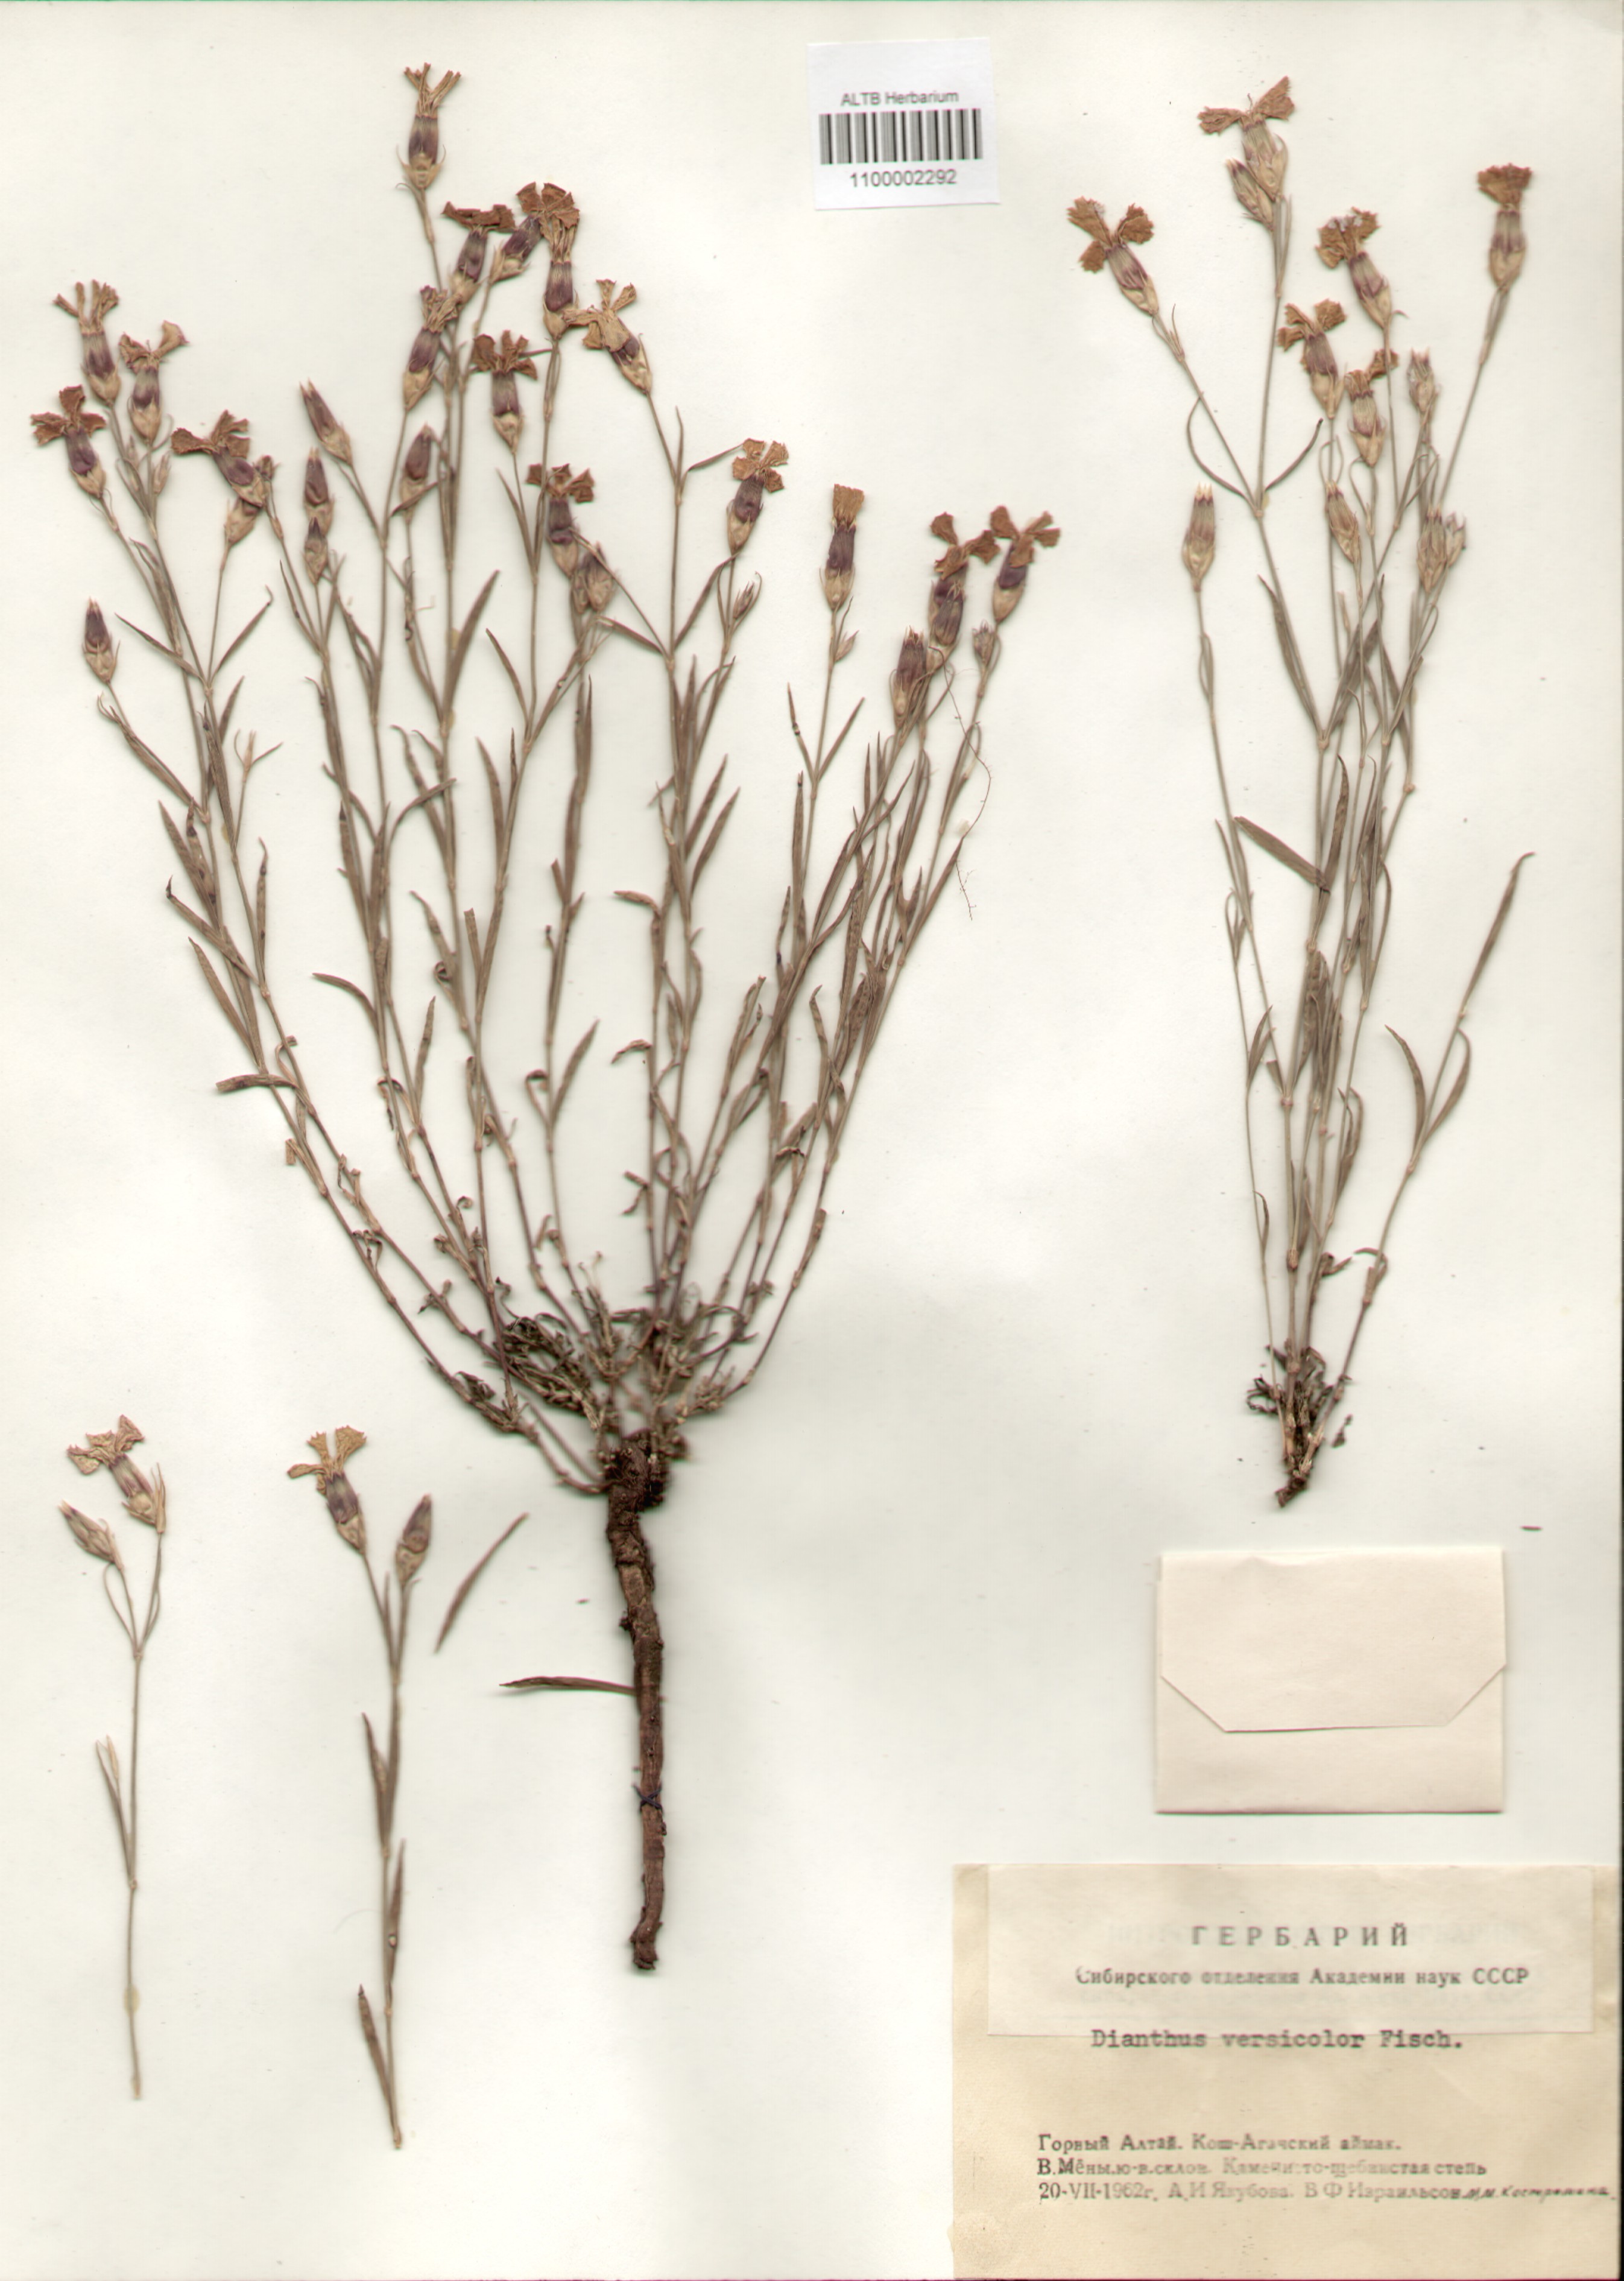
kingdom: Plantae
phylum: Tracheophyta
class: Magnoliopsida
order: Caryophyllales
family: Caryophyllaceae
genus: Dianthus
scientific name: Dianthus chinensis
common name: Rainbow pink
